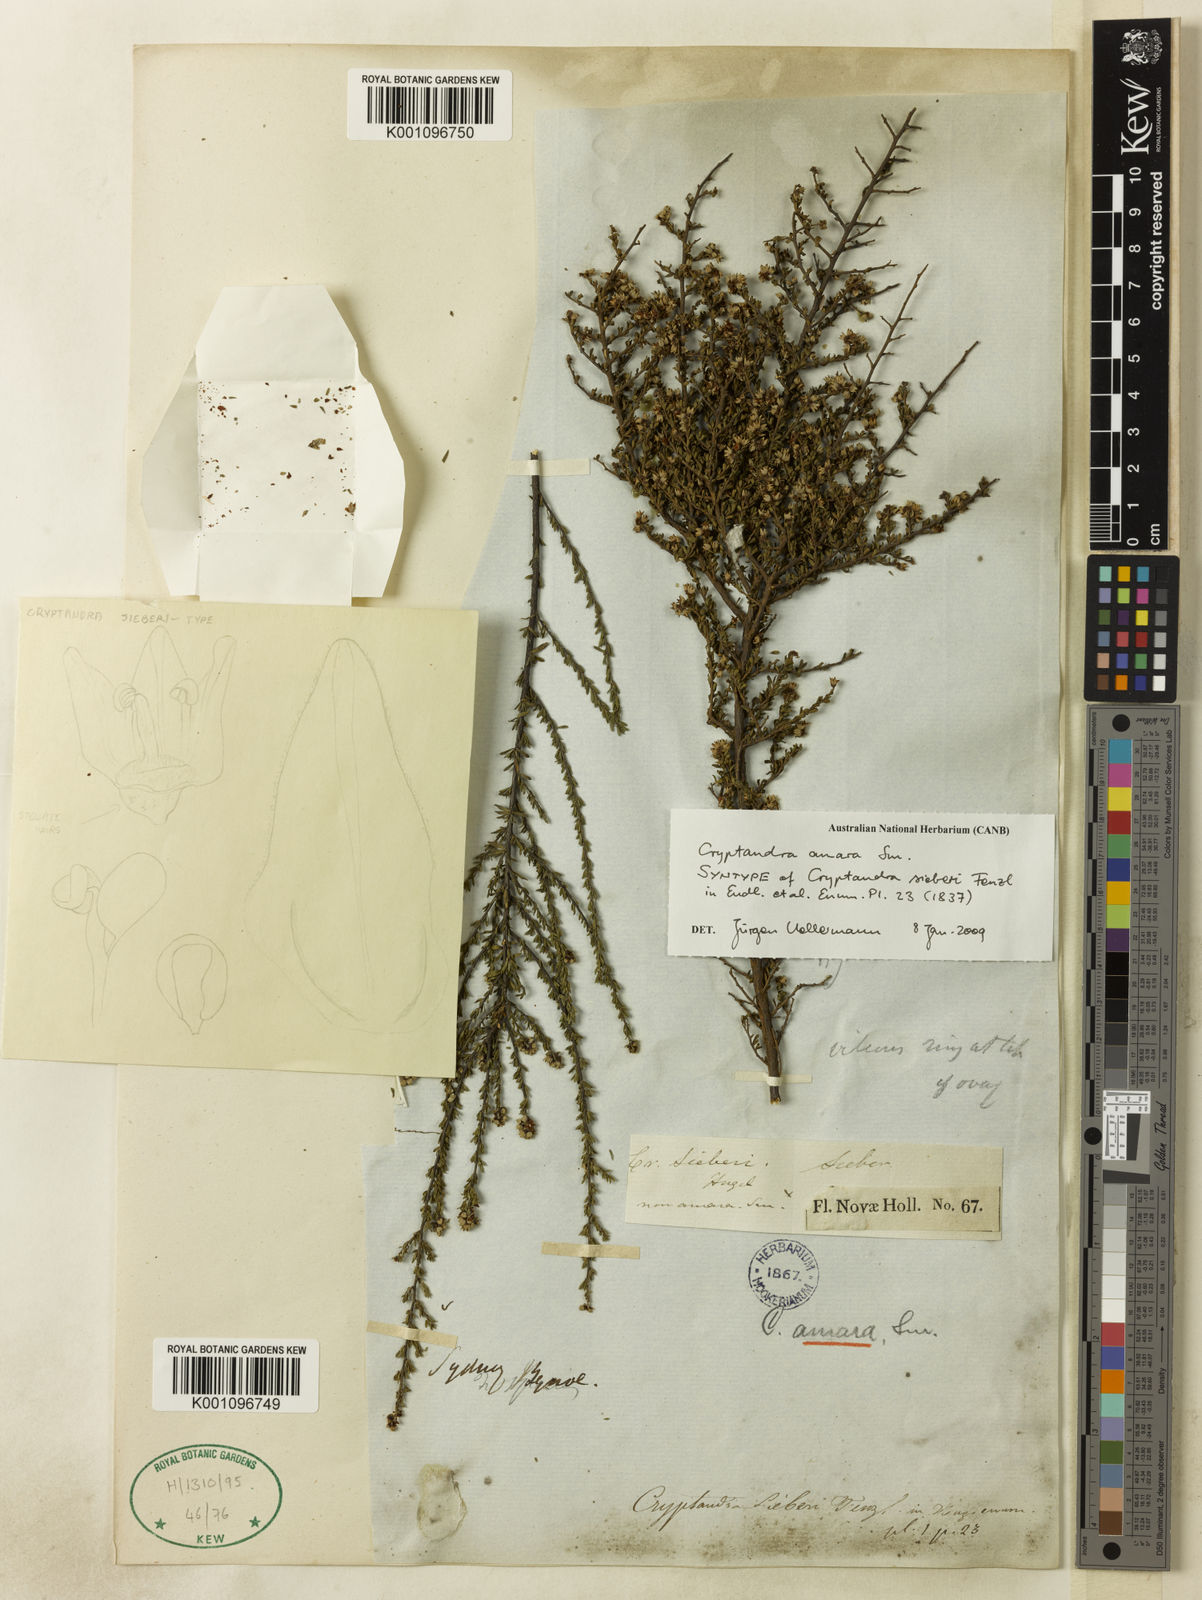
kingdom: Plantae
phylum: Tracheophyta
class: Magnoliopsida
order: Rosales
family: Rhamnaceae
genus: Cryptandra
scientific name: Cryptandra amara
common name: Bitter cryptandra
